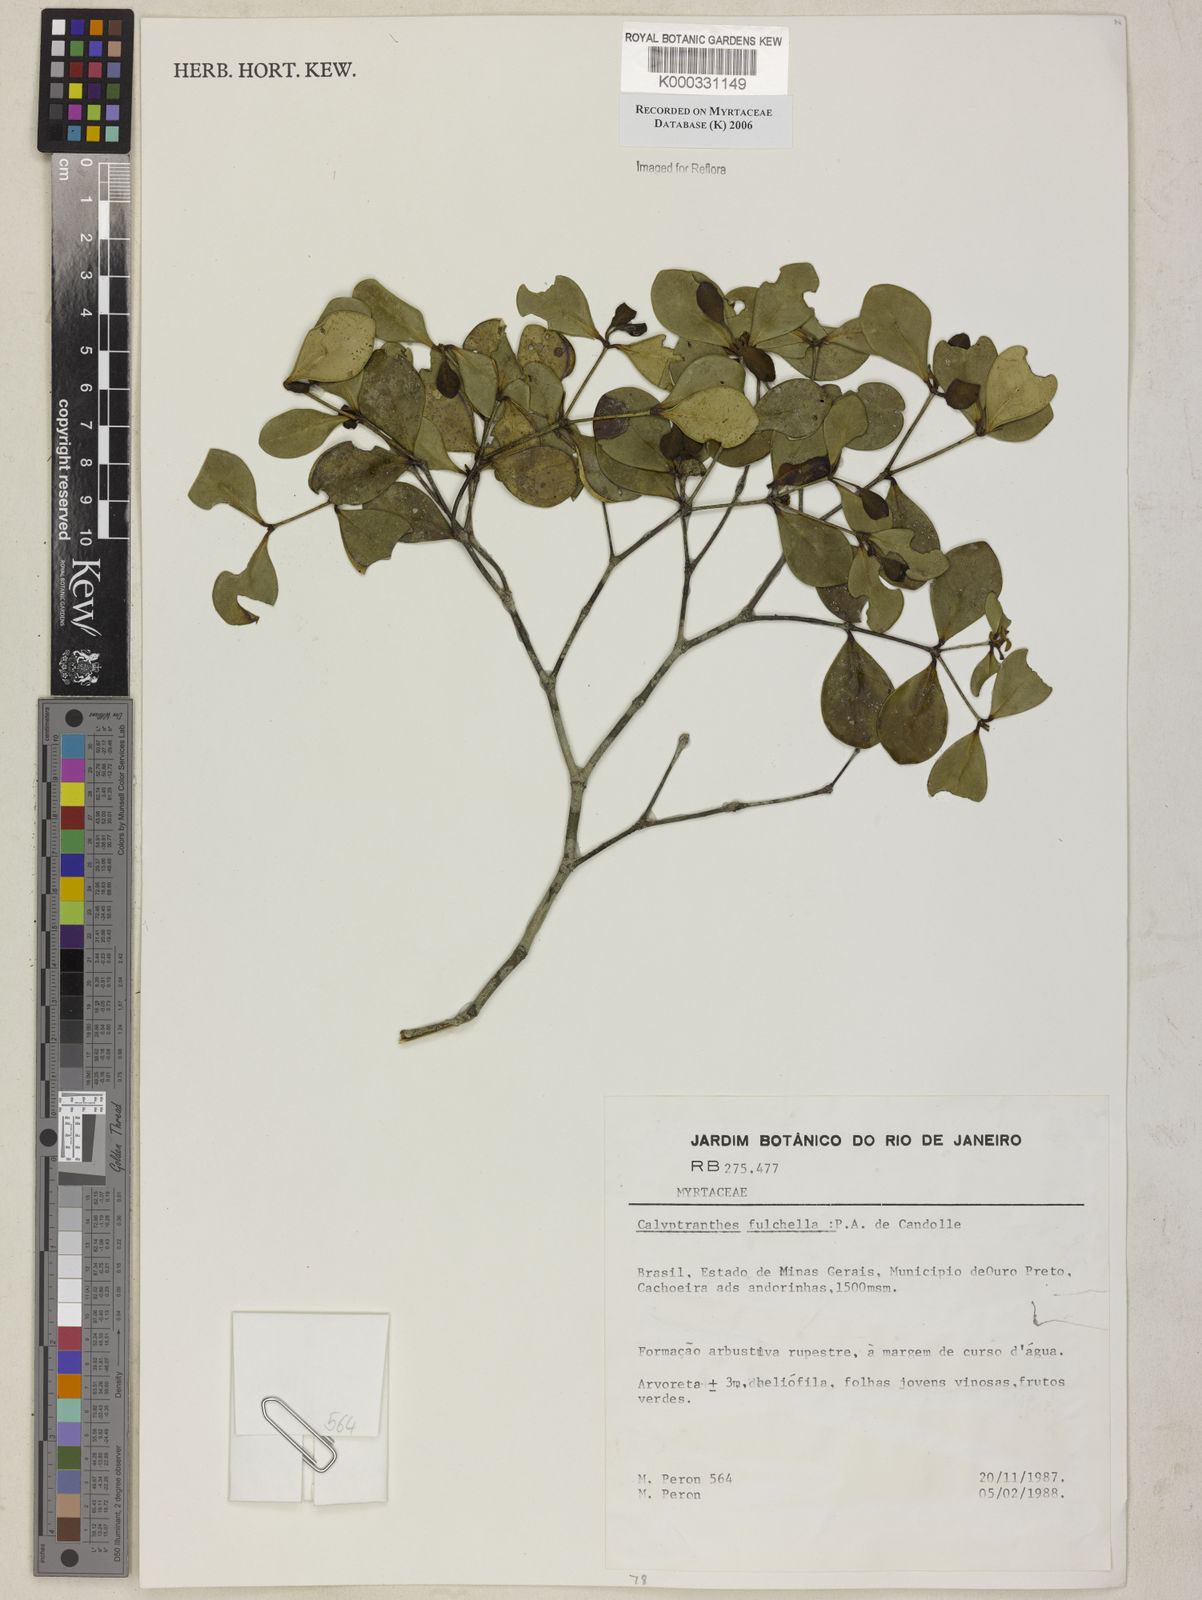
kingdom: Plantae
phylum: Tracheophyta
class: Magnoliopsida
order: Myrtales
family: Myrtaceae
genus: Myrcia
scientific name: Myrcia pulchella
